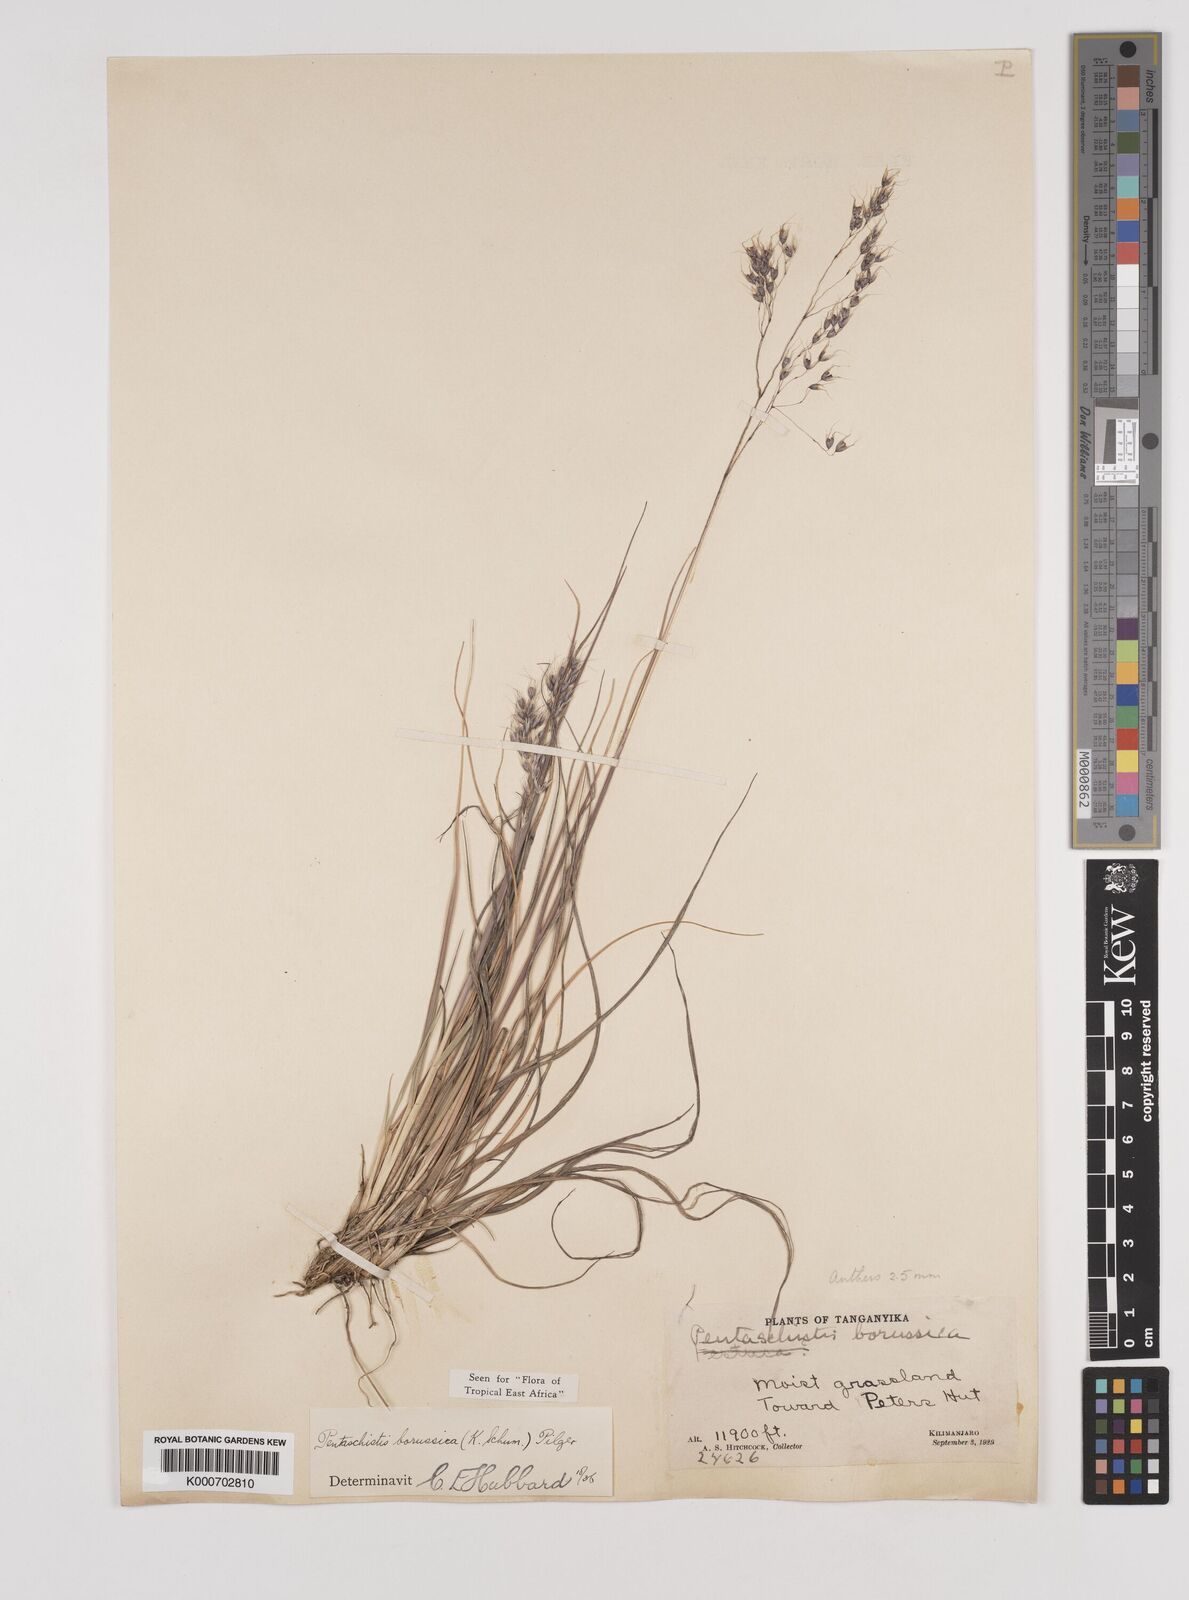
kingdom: Plantae
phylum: Tracheophyta
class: Liliopsida
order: Poales
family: Poaceae
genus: Pentameris
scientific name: Pentameris borussica
